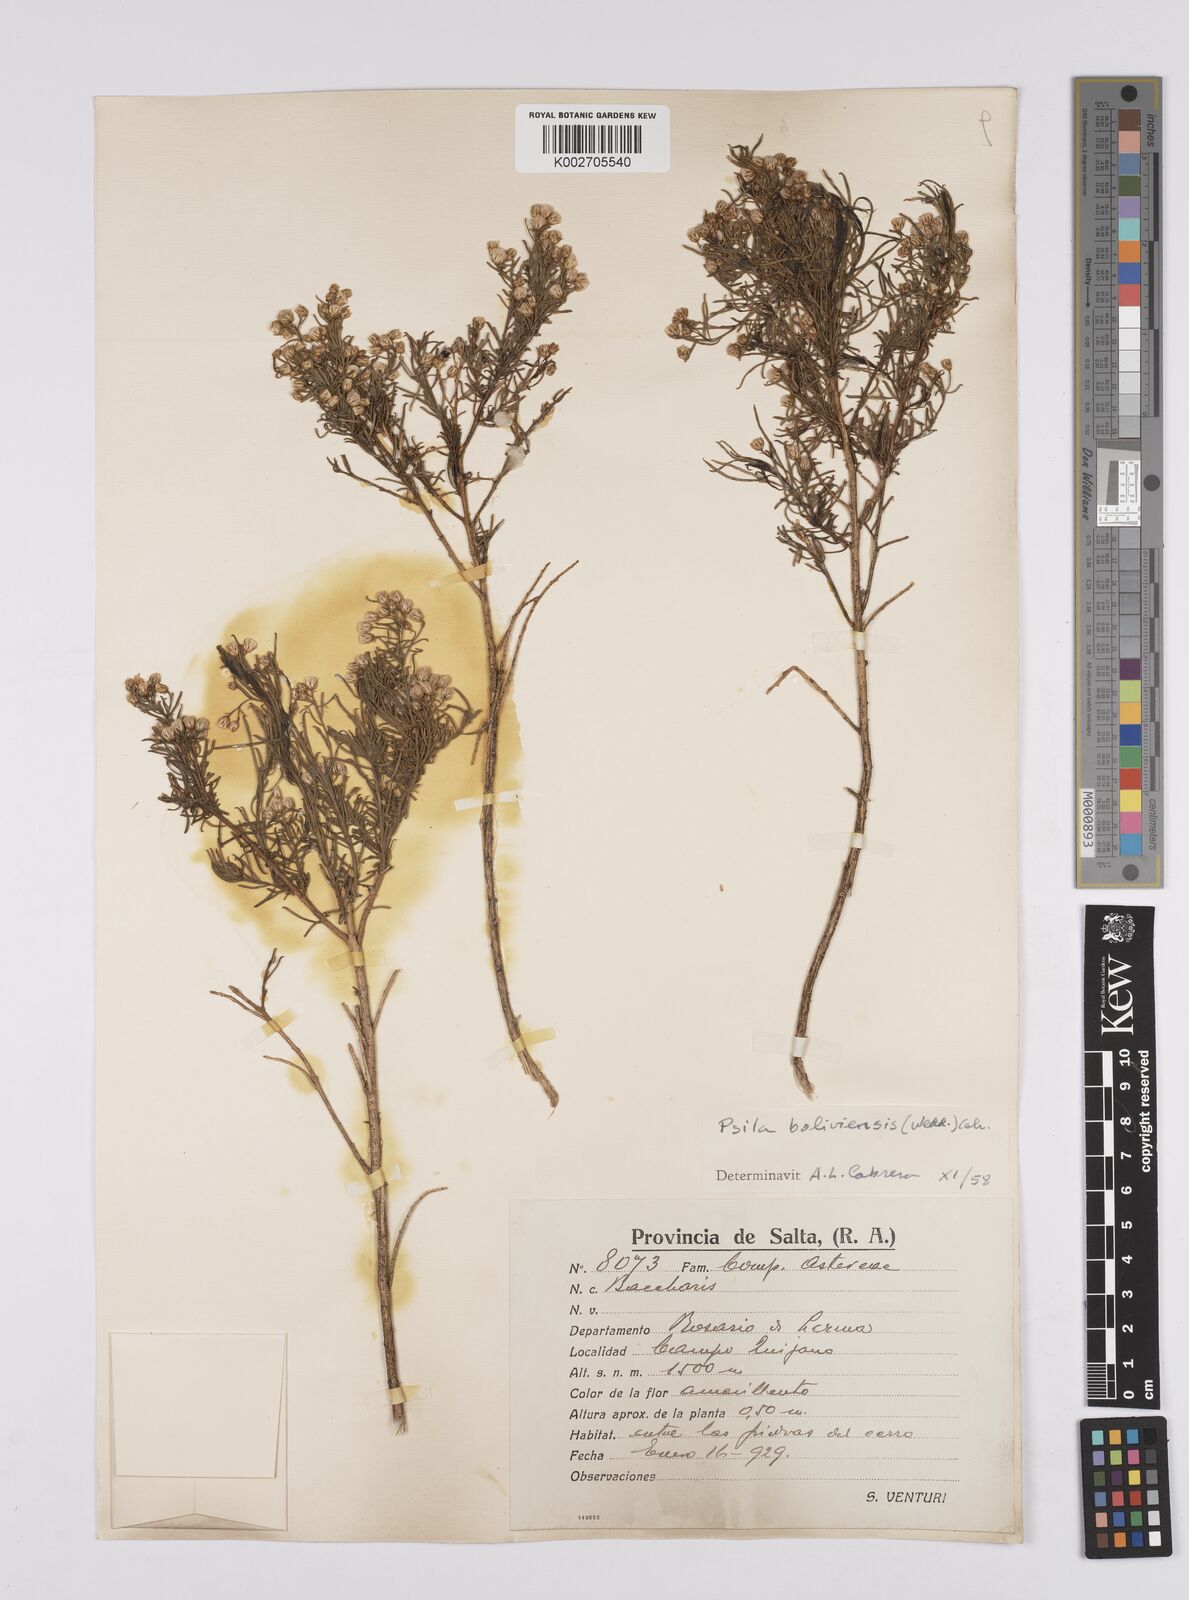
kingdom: Plantae
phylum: Tracheophyta
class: Magnoliopsida
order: Asterales
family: Asteraceae
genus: Baccharis
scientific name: Baccharis bolivensis
